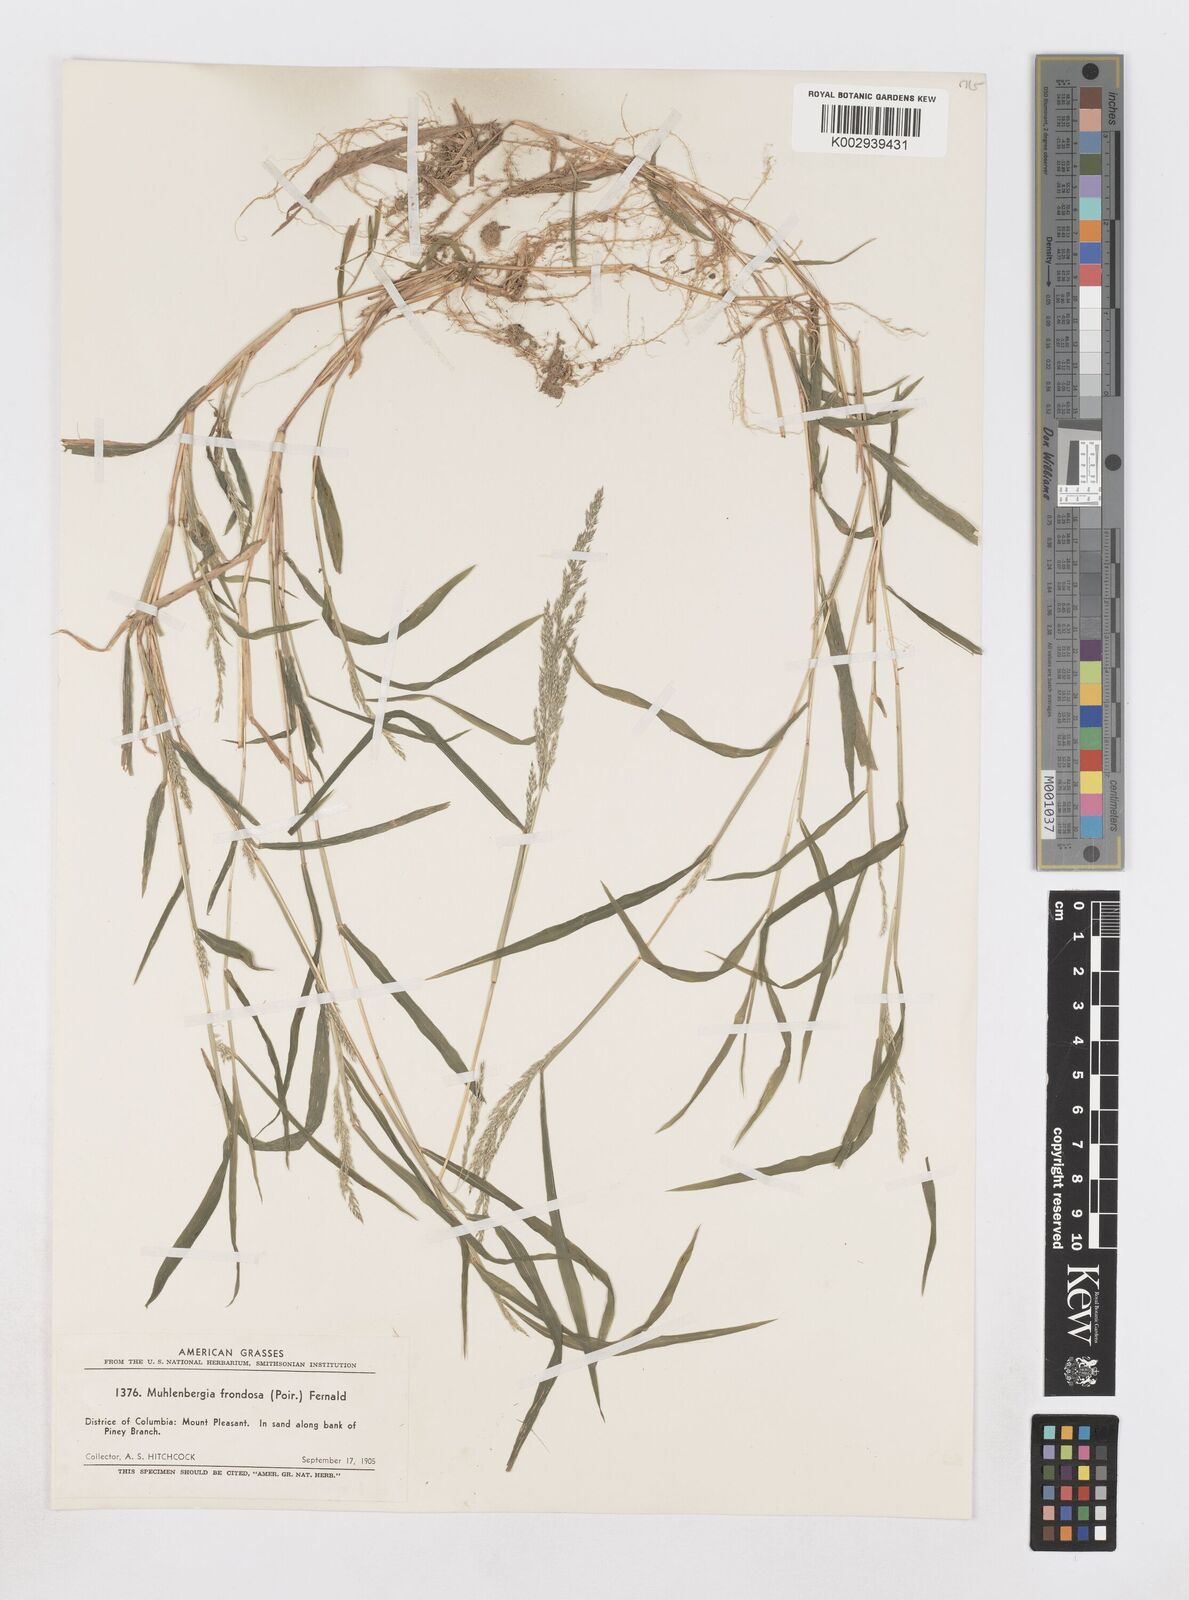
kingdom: Plantae
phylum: Tracheophyta
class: Liliopsida
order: Poales
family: Poaceae
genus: Muhlenbergia
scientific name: Muhlenbergia frondosa
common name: Common satingrass
